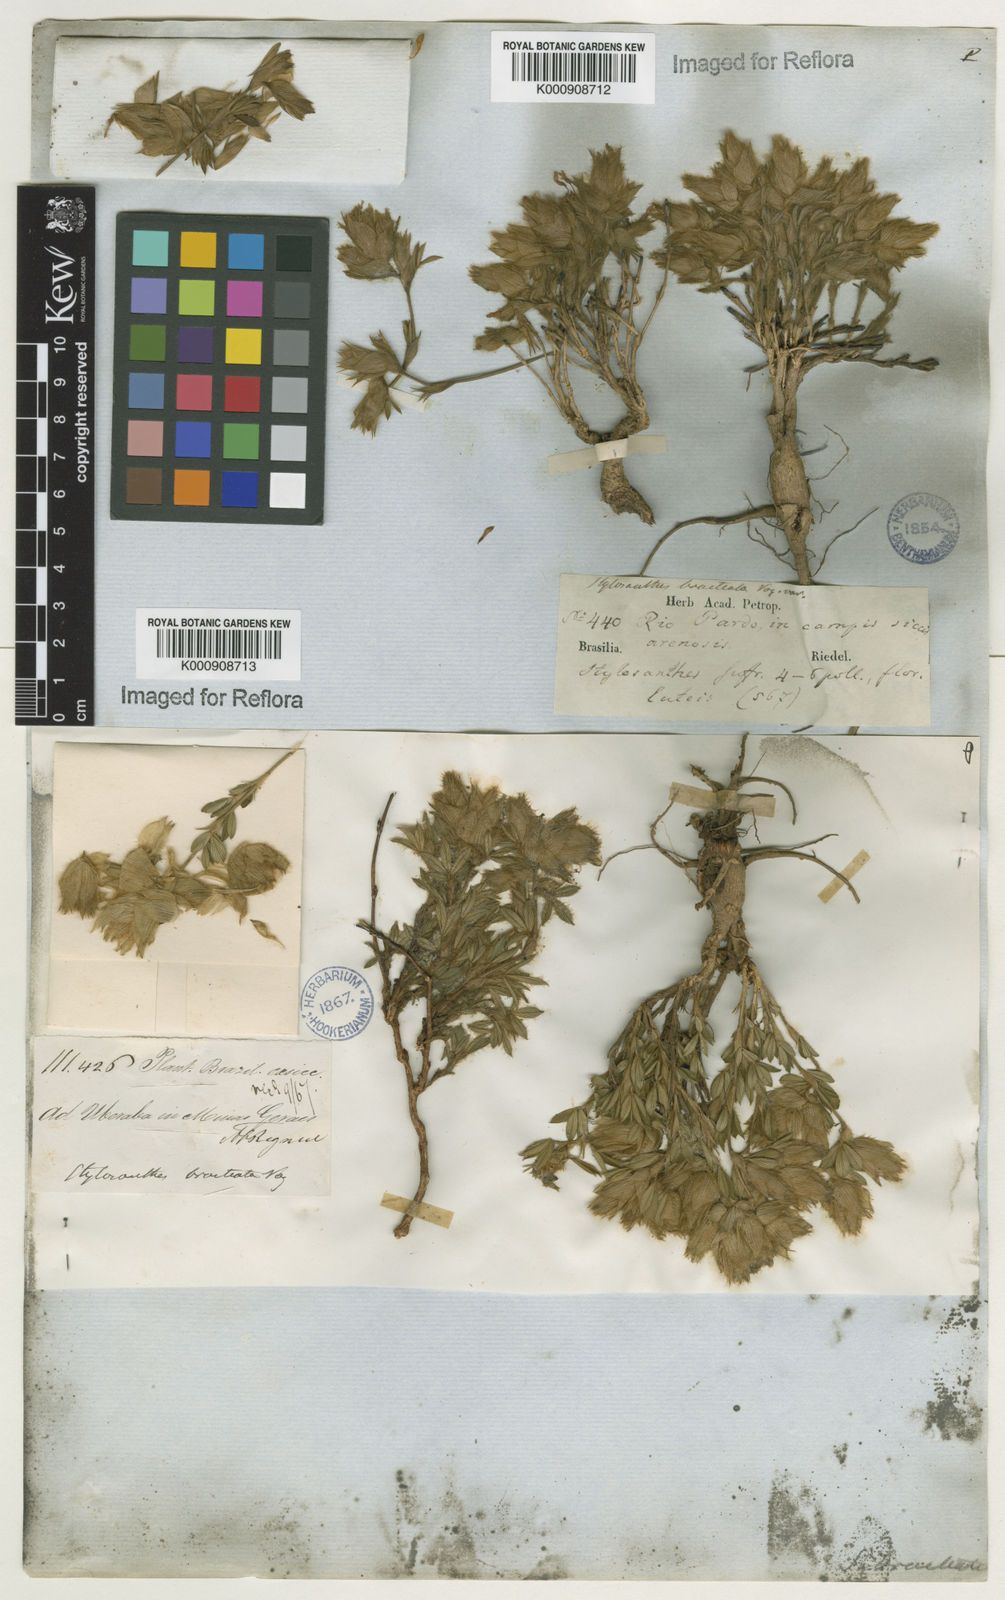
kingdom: Plantae
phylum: Tracheophyta
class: Magnoliopsida
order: Fabales
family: Fabaceae
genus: Stylosanthes
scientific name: Stylosanthes bracteata
